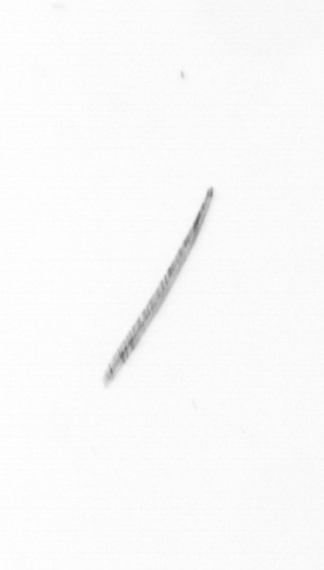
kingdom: Chromista
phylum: Ochrophyta
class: Bacillariophyceae
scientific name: Bacillariophyceae
